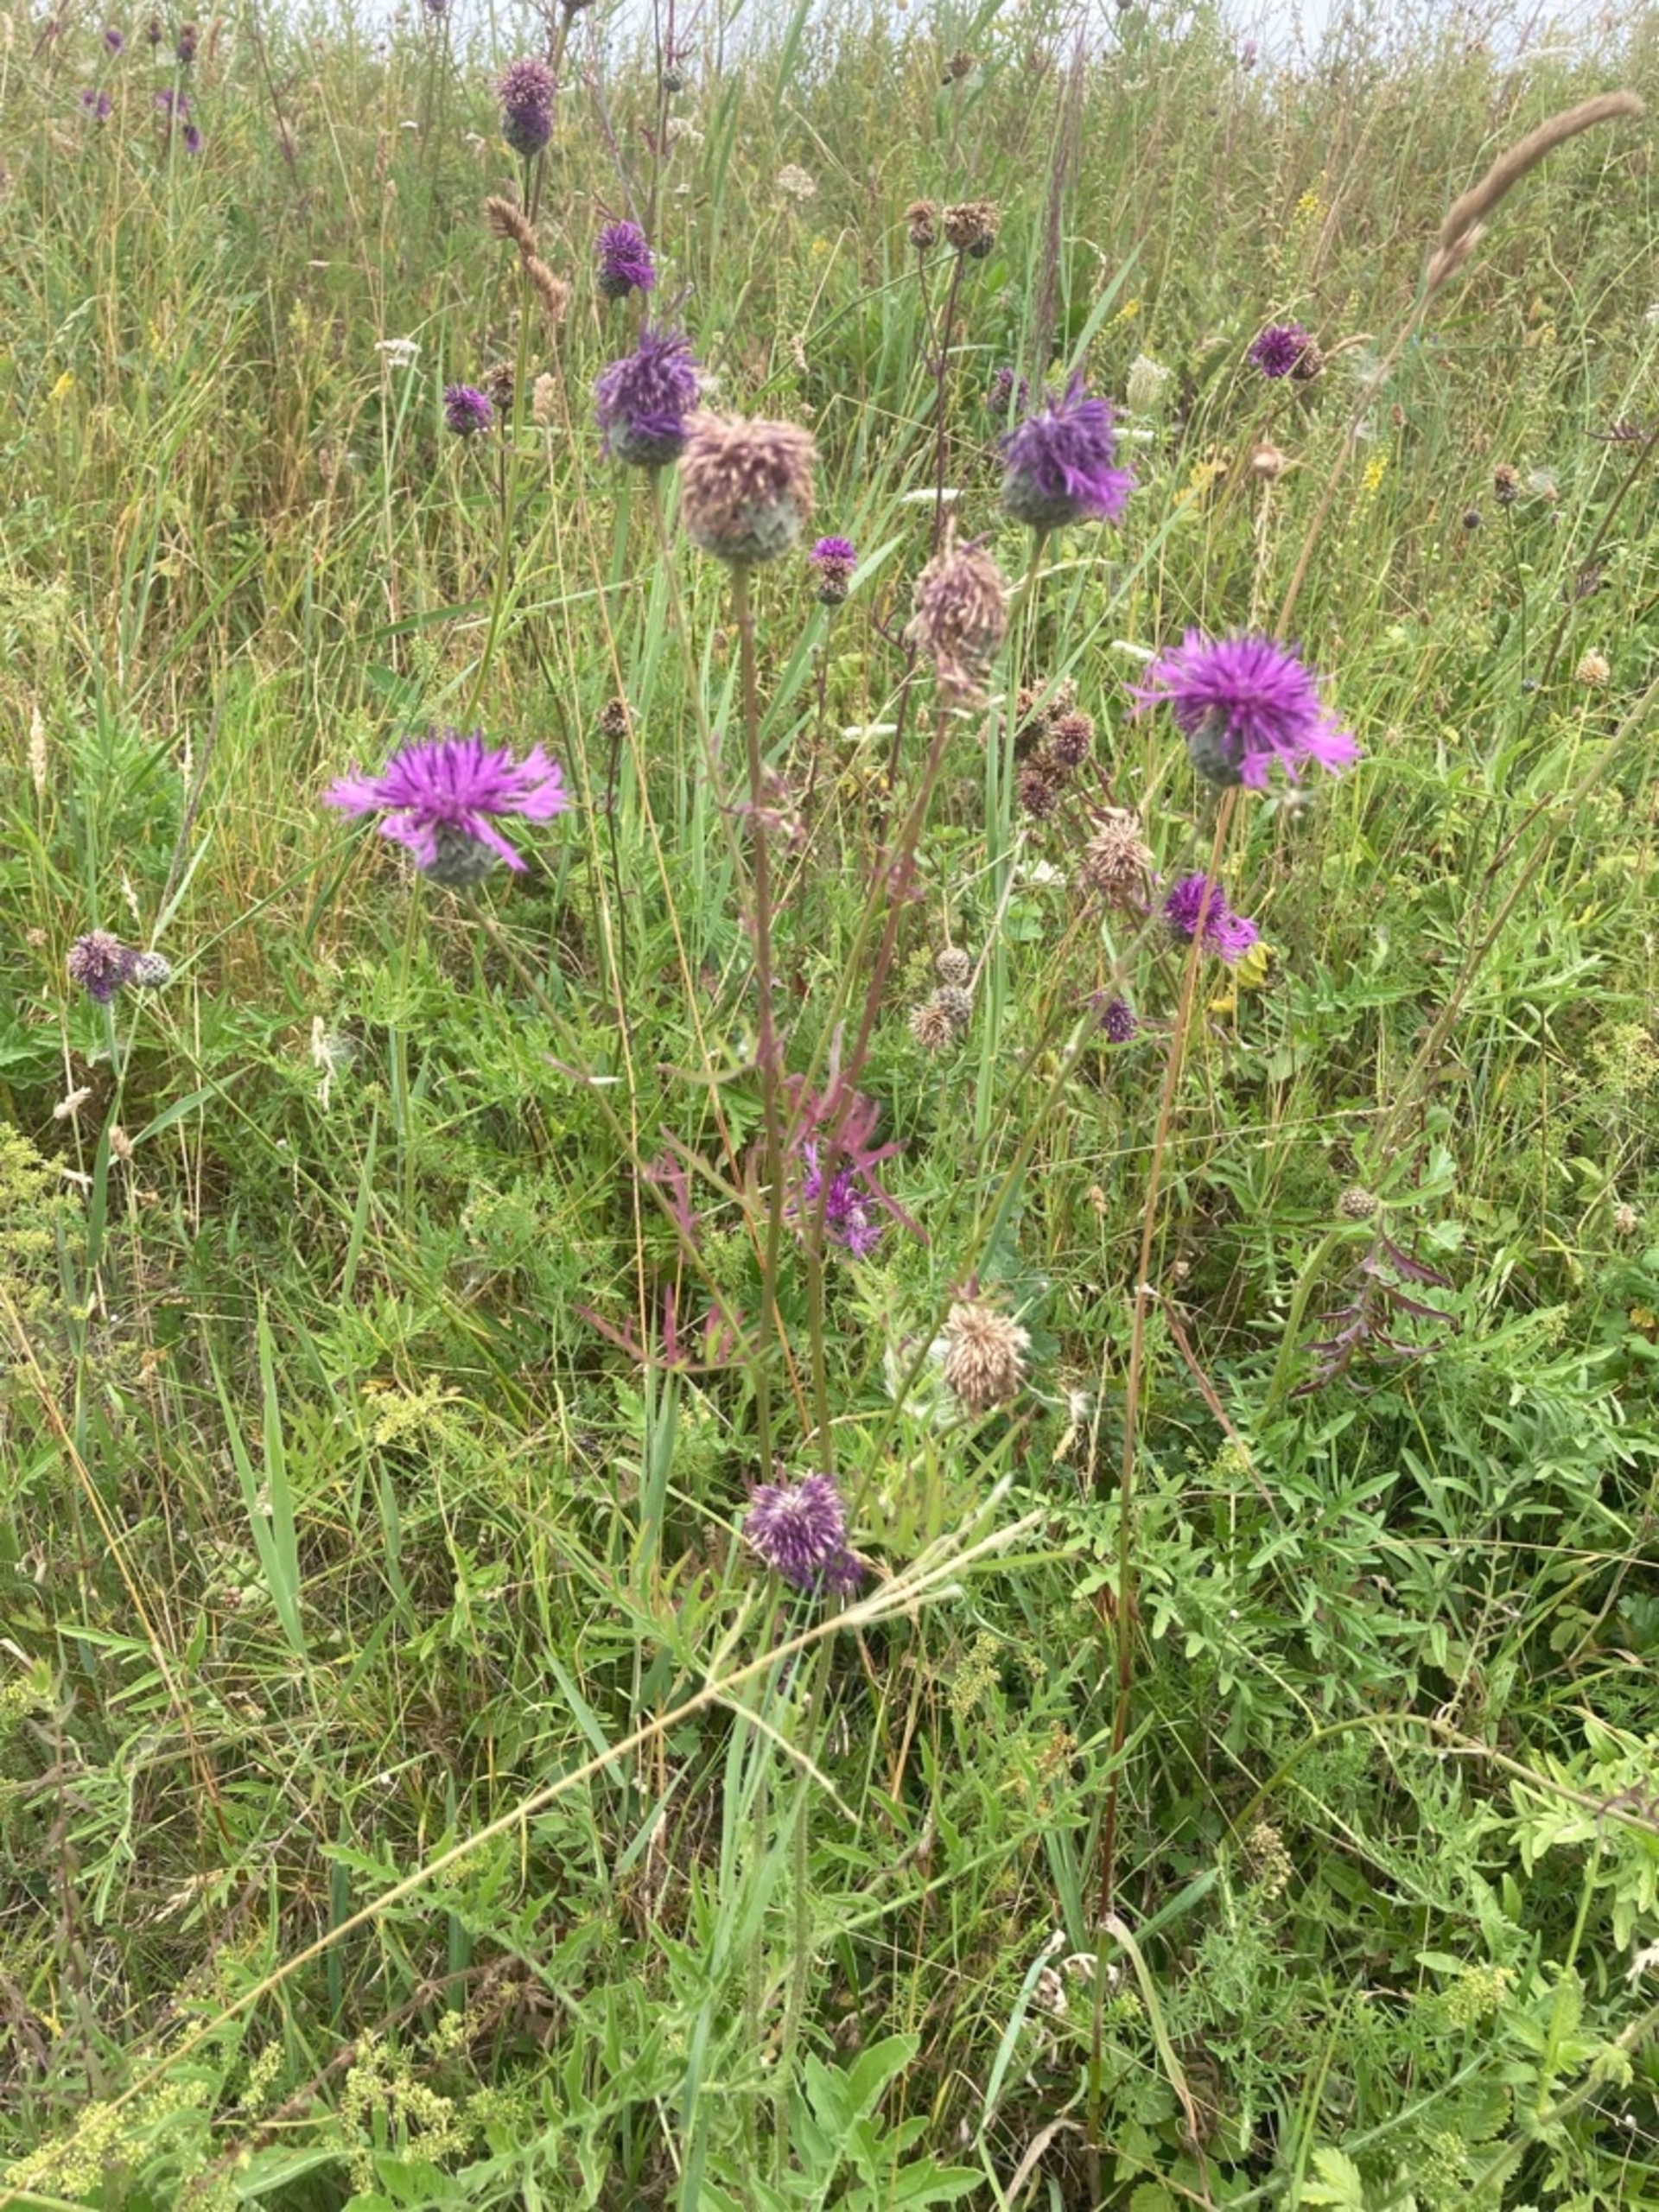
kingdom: Plantae
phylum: Tracheophyta
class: Magnoliopsida
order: Asterales
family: Asteraceae
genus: Centaurea
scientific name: Centaurea scabiosa
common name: Stor knopurt
